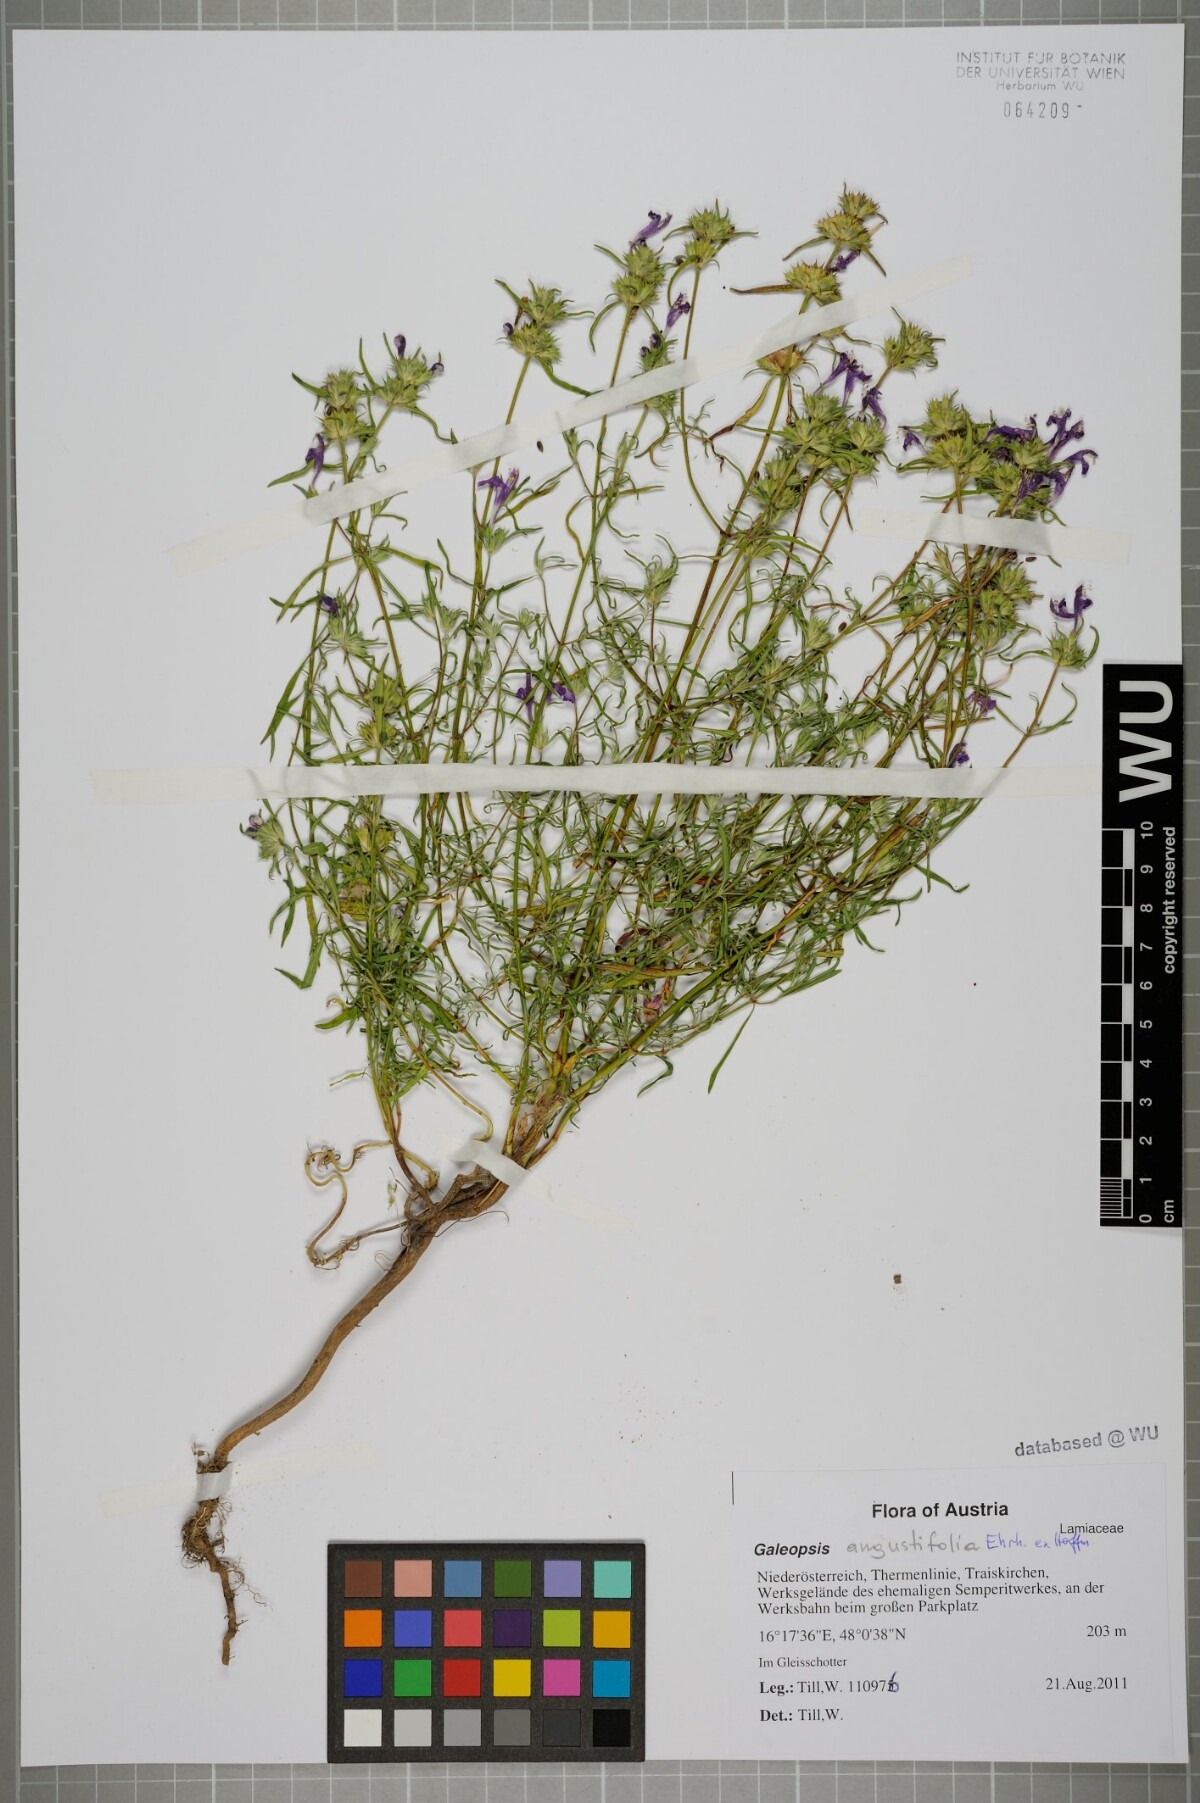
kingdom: Plantae
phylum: Tracheophyta
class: Magnoliopsida
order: Lamiales
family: Lamiaceae
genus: Galeopsis
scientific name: Galeopsis angustifolia
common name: Red hemp-nettle
